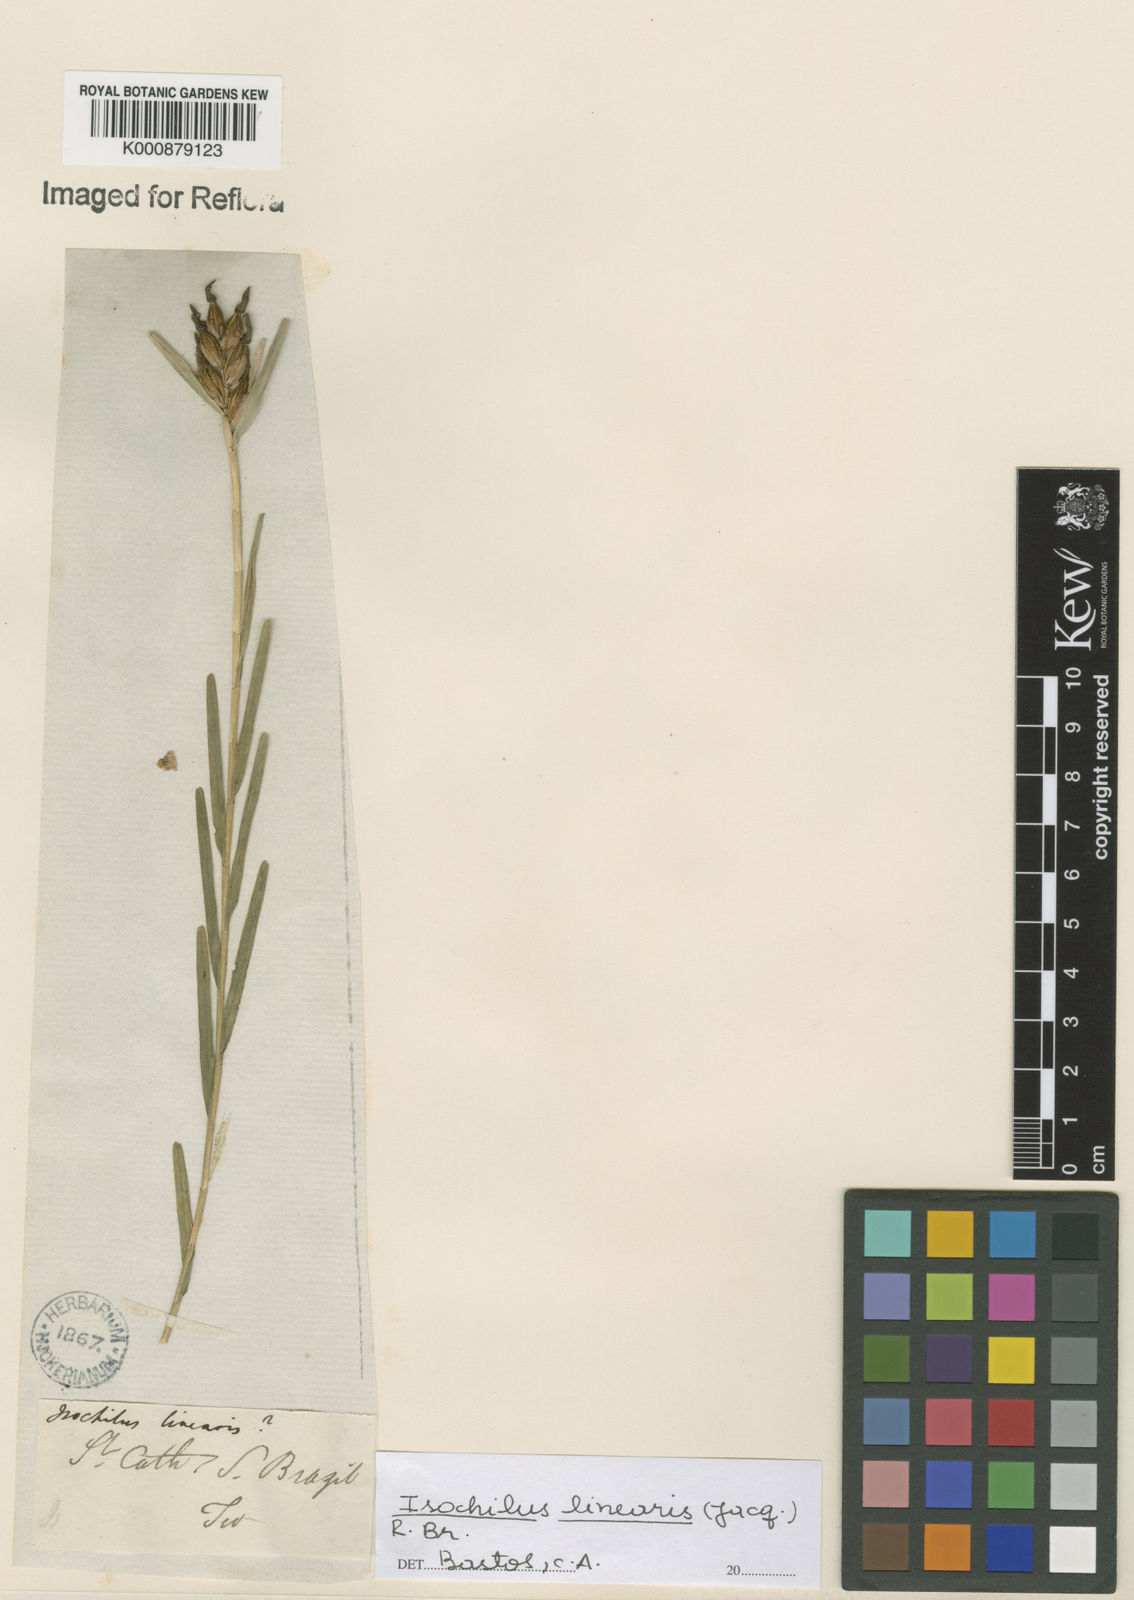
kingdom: Plantae
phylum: Tracheophyta
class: Liliopsida
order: Asparagales
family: Orchidaceae
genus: Isochilus
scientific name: Isochilus linearis
